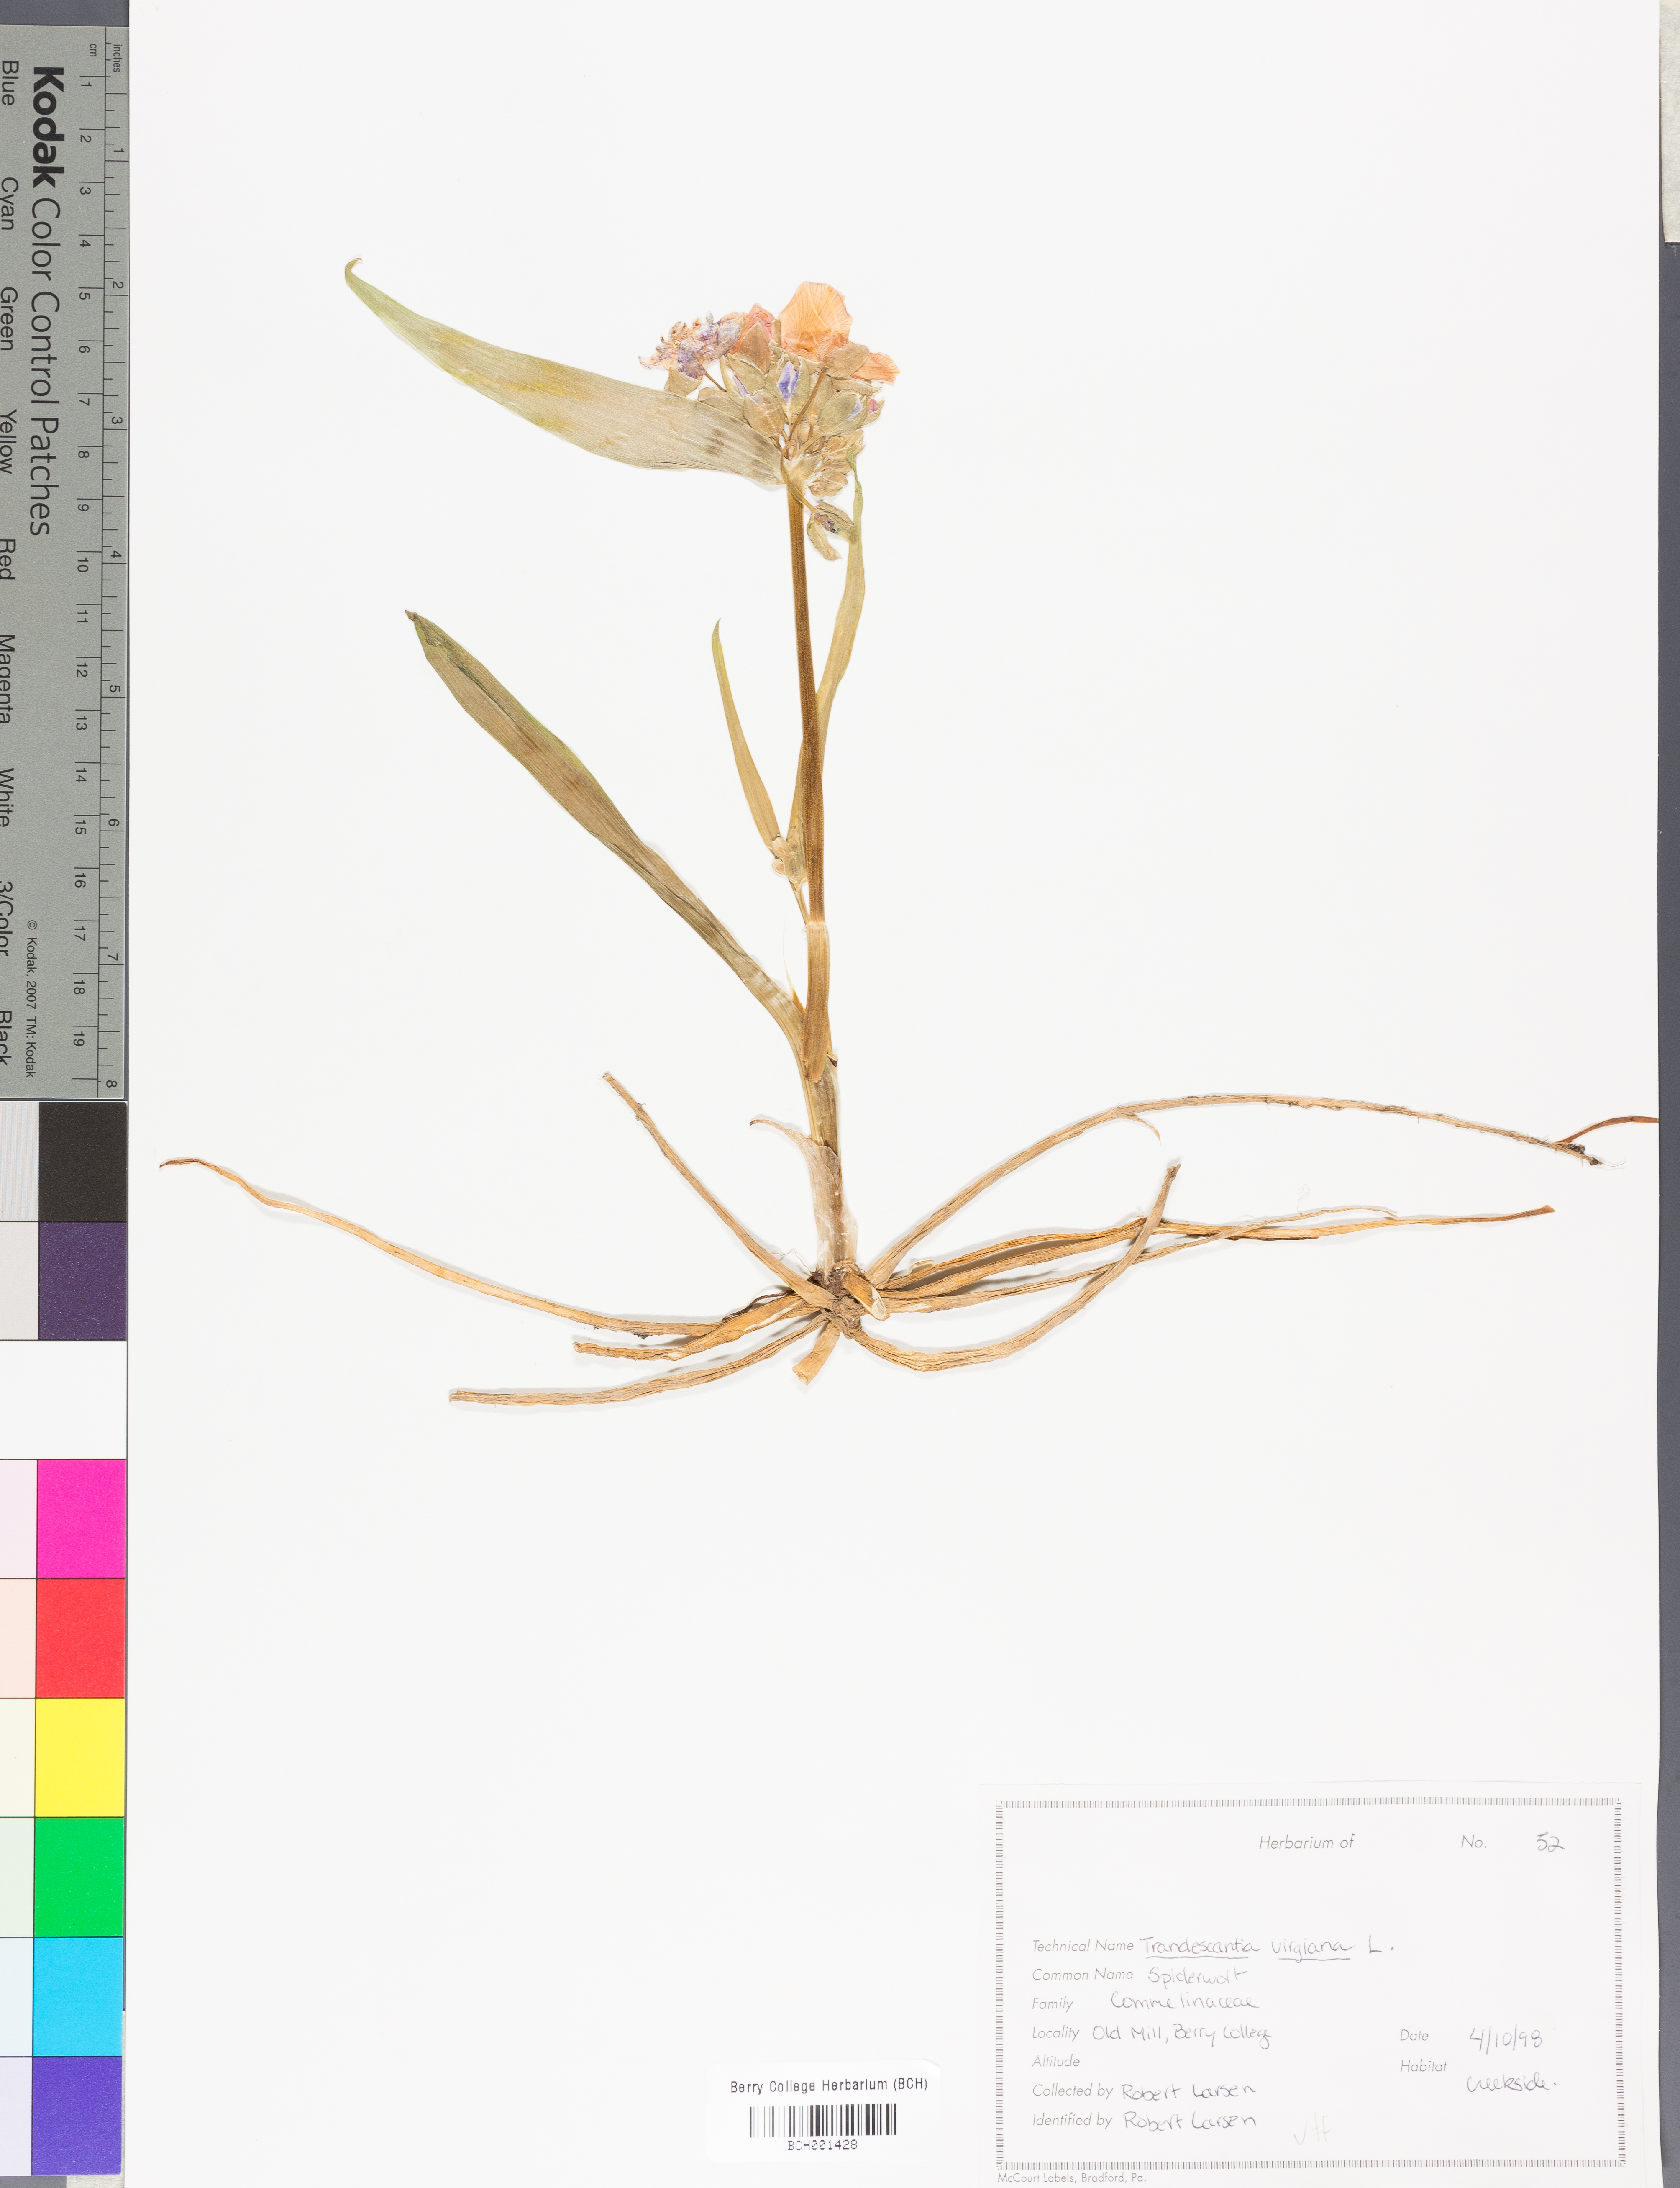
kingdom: Plantae
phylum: Tracheophyta
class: Liliopsida
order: Commelinales
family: Commelinaceae
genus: Tradescantia
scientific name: Tradescantia virginiana
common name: Spiderwort
